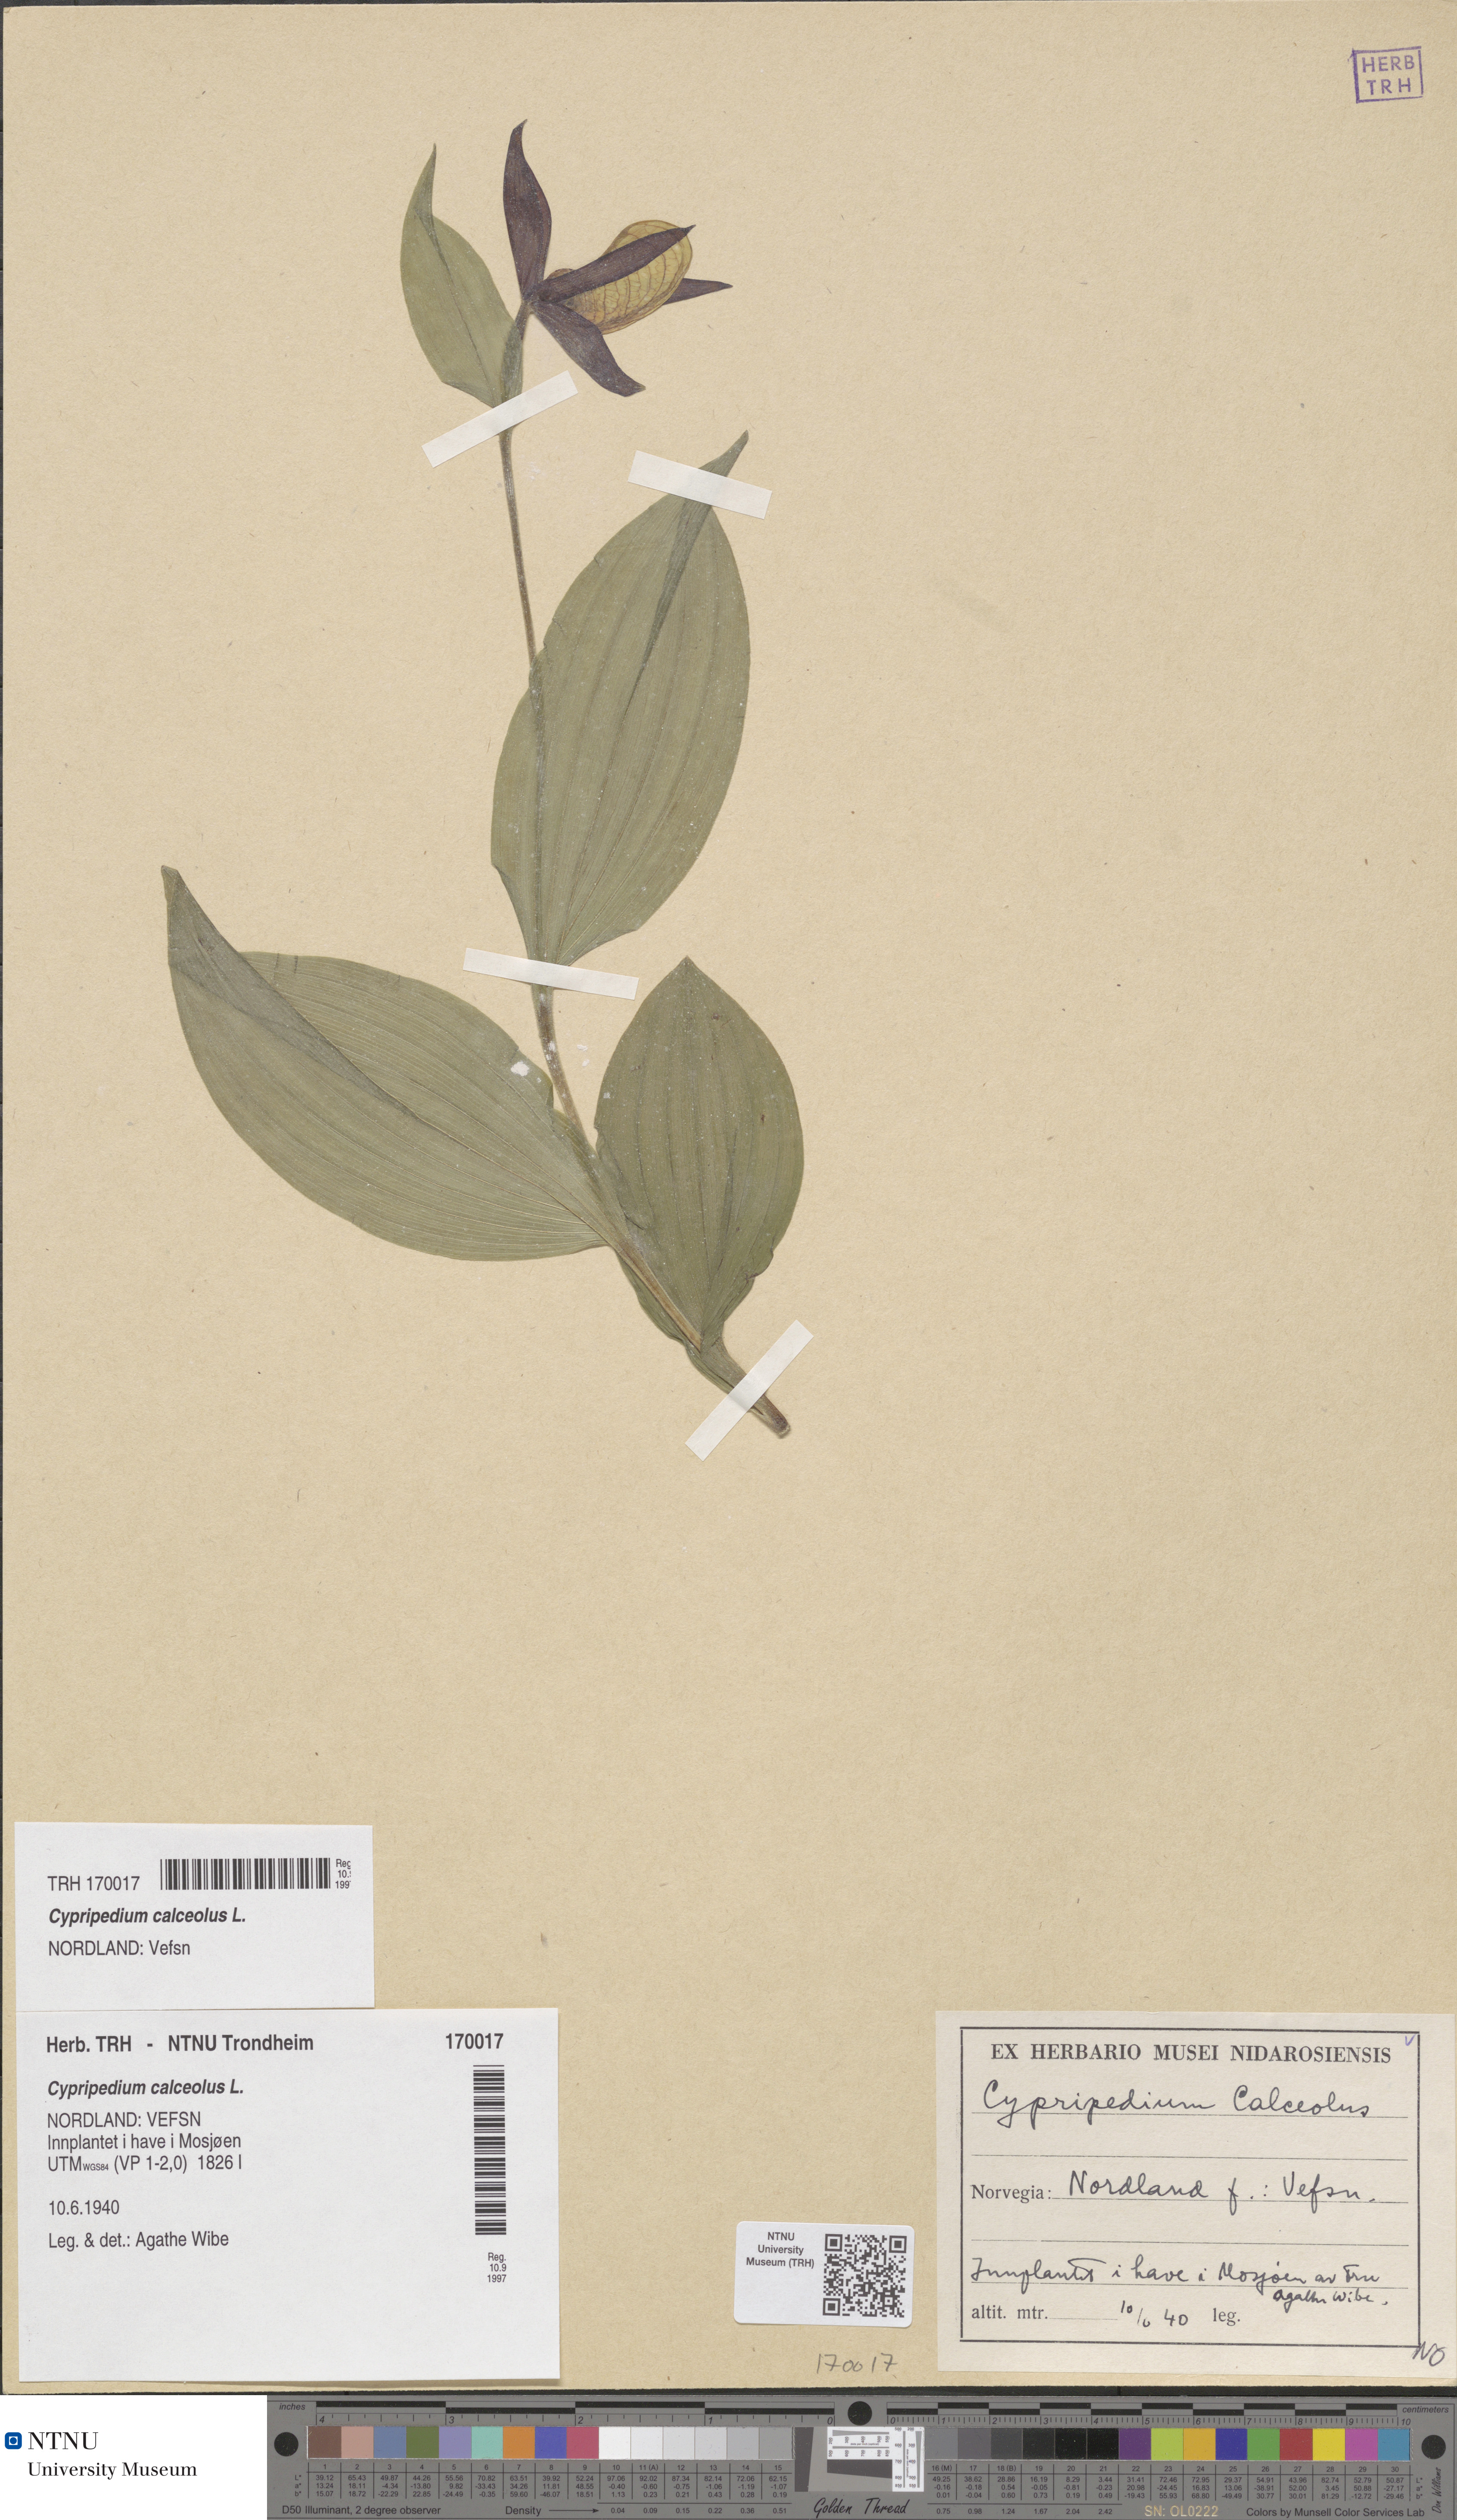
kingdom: Plantae
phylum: Tracheophyta
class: Liliopsida
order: Asparagales
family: Orchidaceae
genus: Cypripedium
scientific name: Cypripedium calceolus
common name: Lady's-slipper
